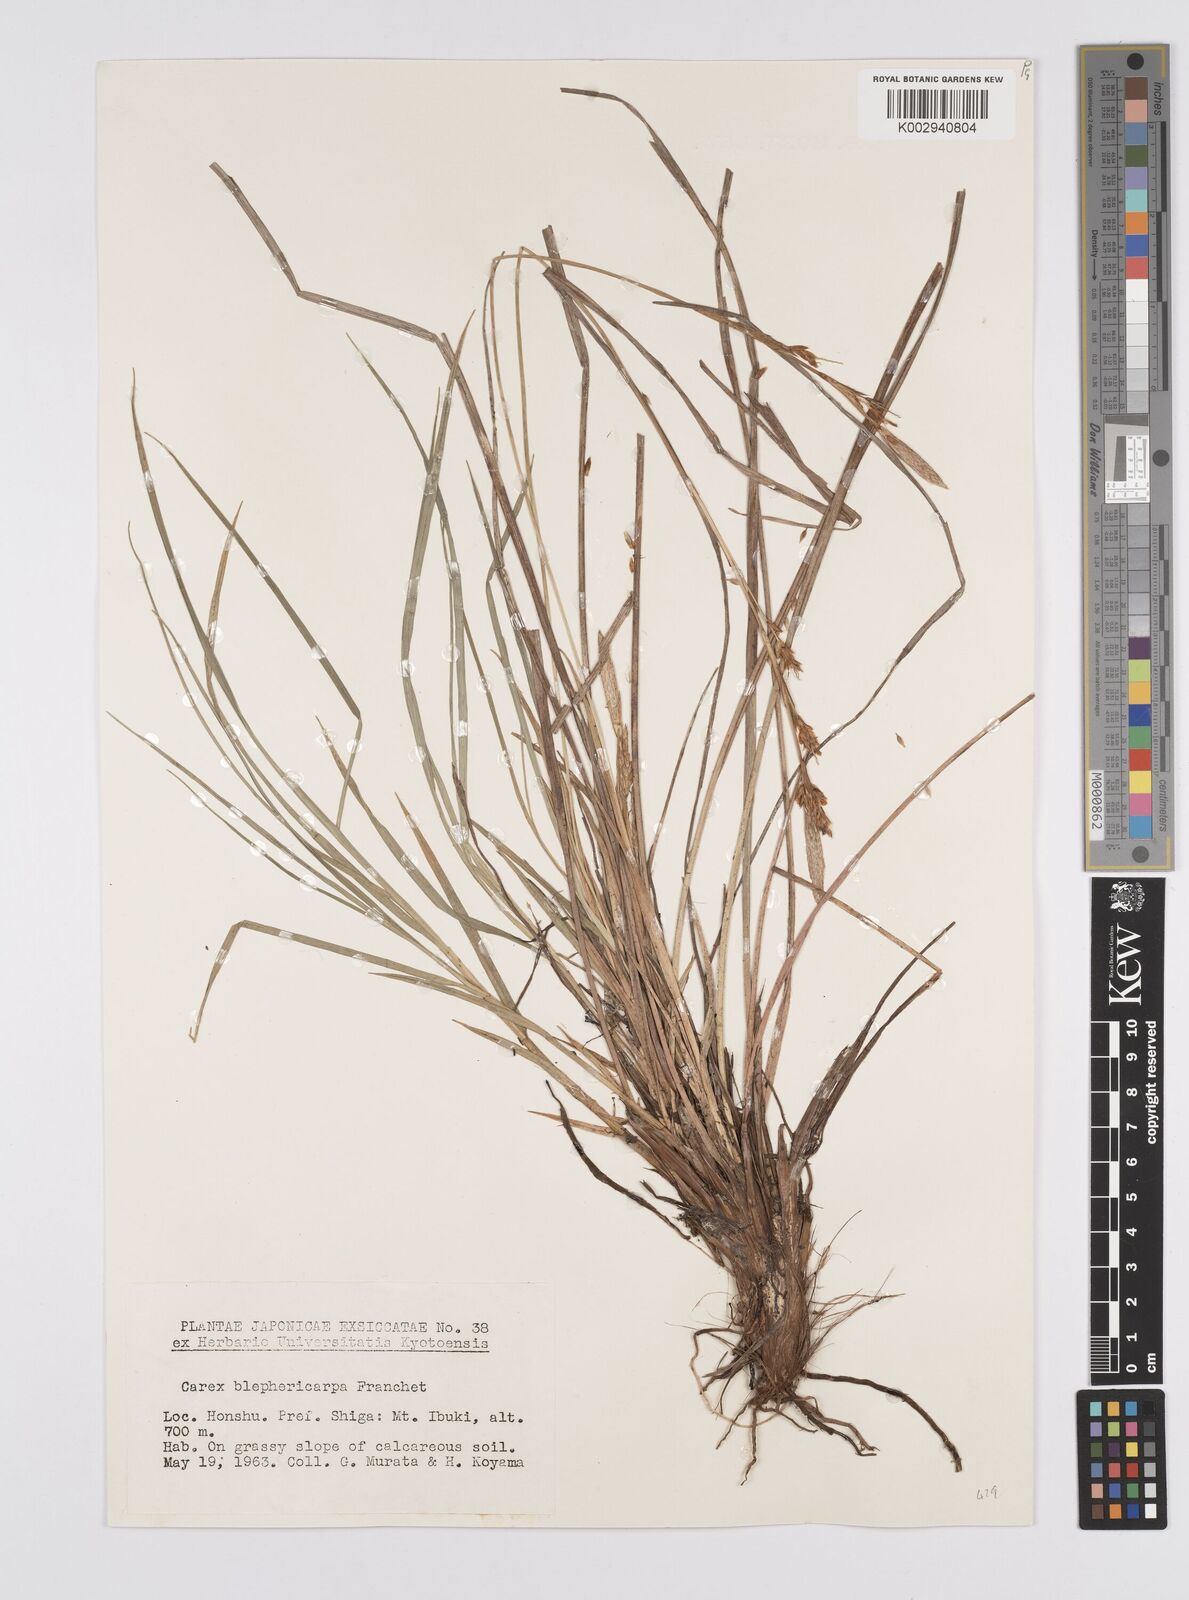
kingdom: Plantae
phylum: Tracheophyta
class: Liliopsida
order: Poales
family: Cyperaceae
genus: Carex
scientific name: Carex blepharicarpa
